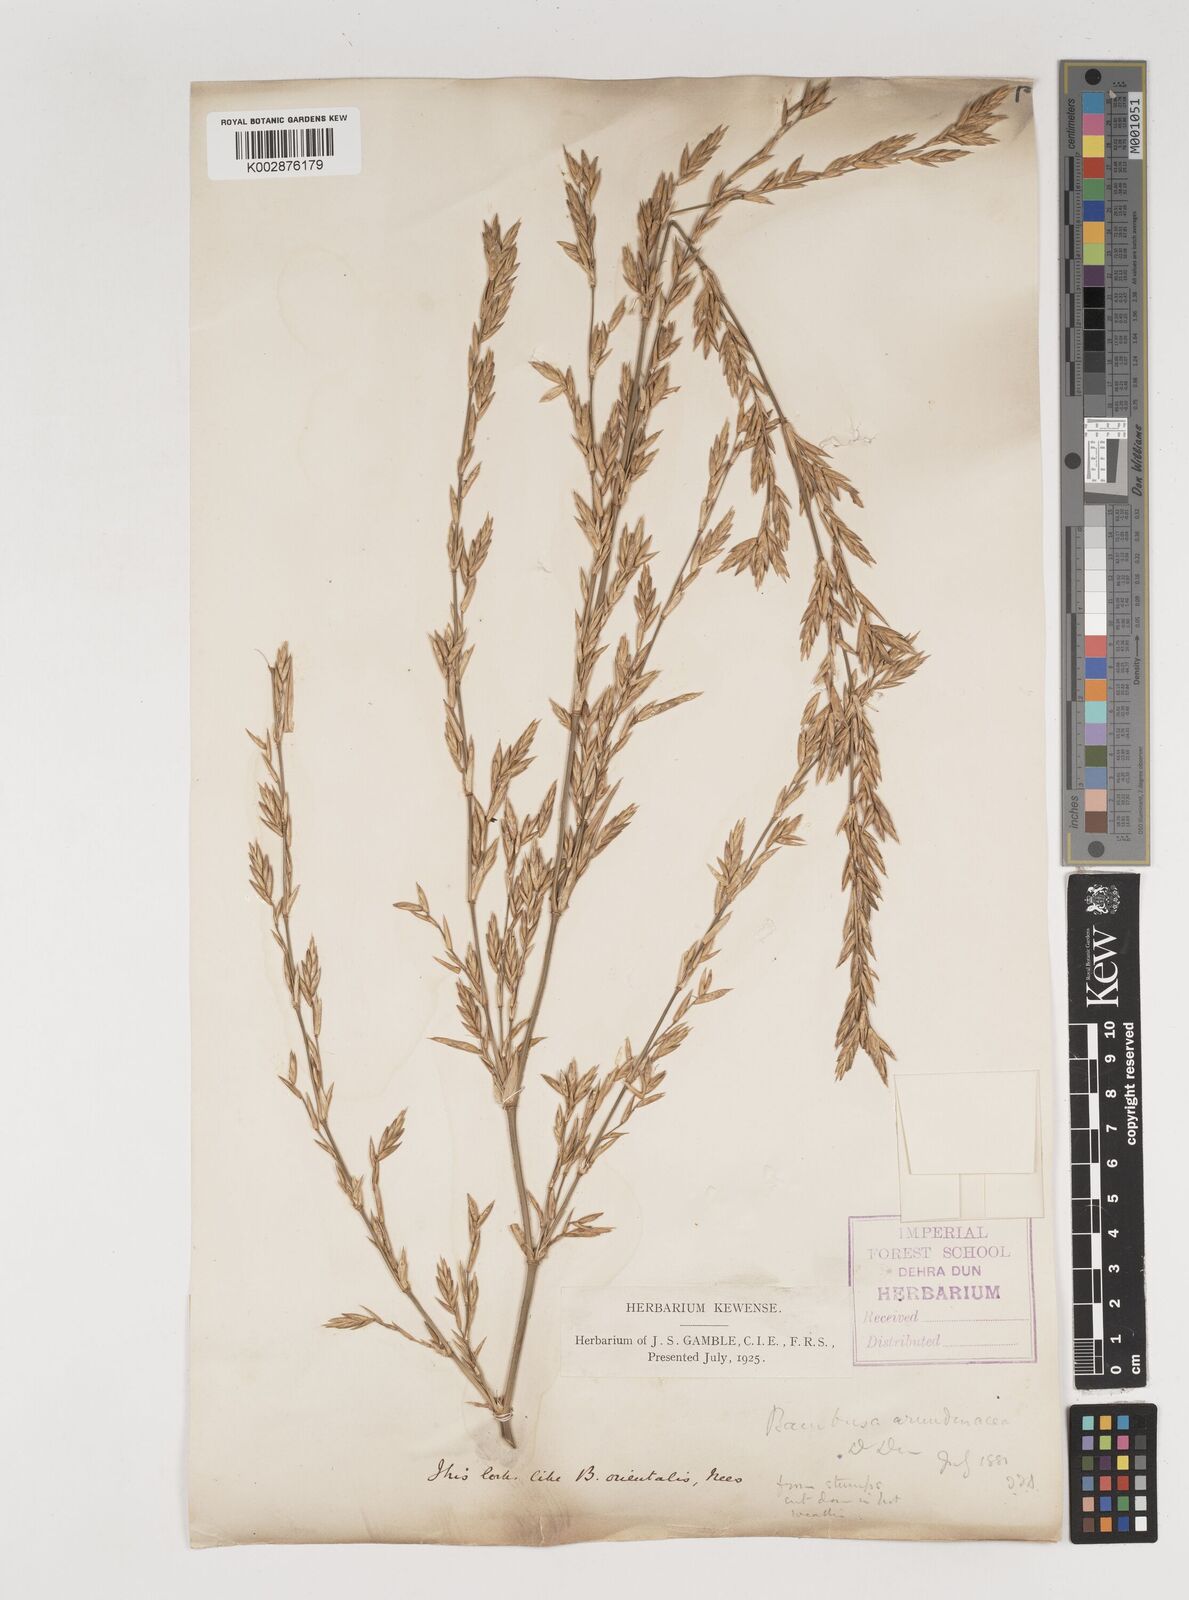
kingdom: Plantae
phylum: Tracheophyta
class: Liliopsida
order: Poales
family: Poaceae
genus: Bambusa
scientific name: Bambusa bambos
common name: Indian thorny bamboo
